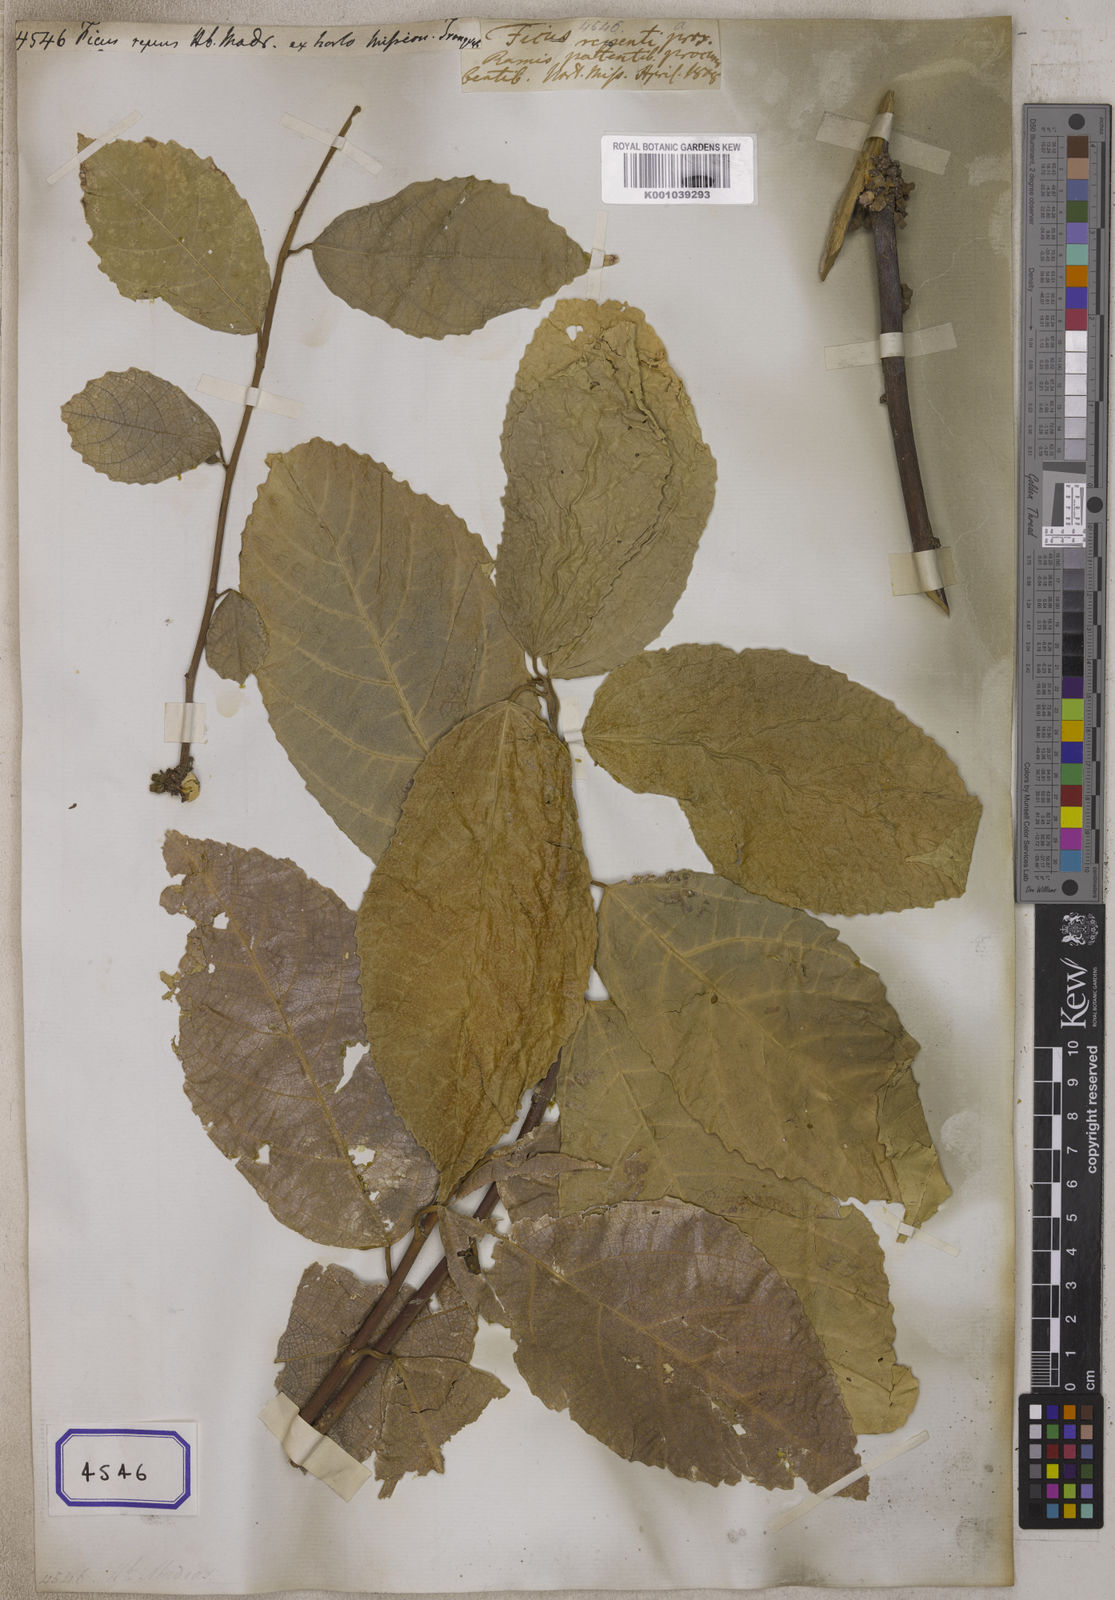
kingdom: Plantae
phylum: Tracheophyta
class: Magnoliopsida
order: Rosales
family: Moraceae
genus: Ficus
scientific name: Ficus
